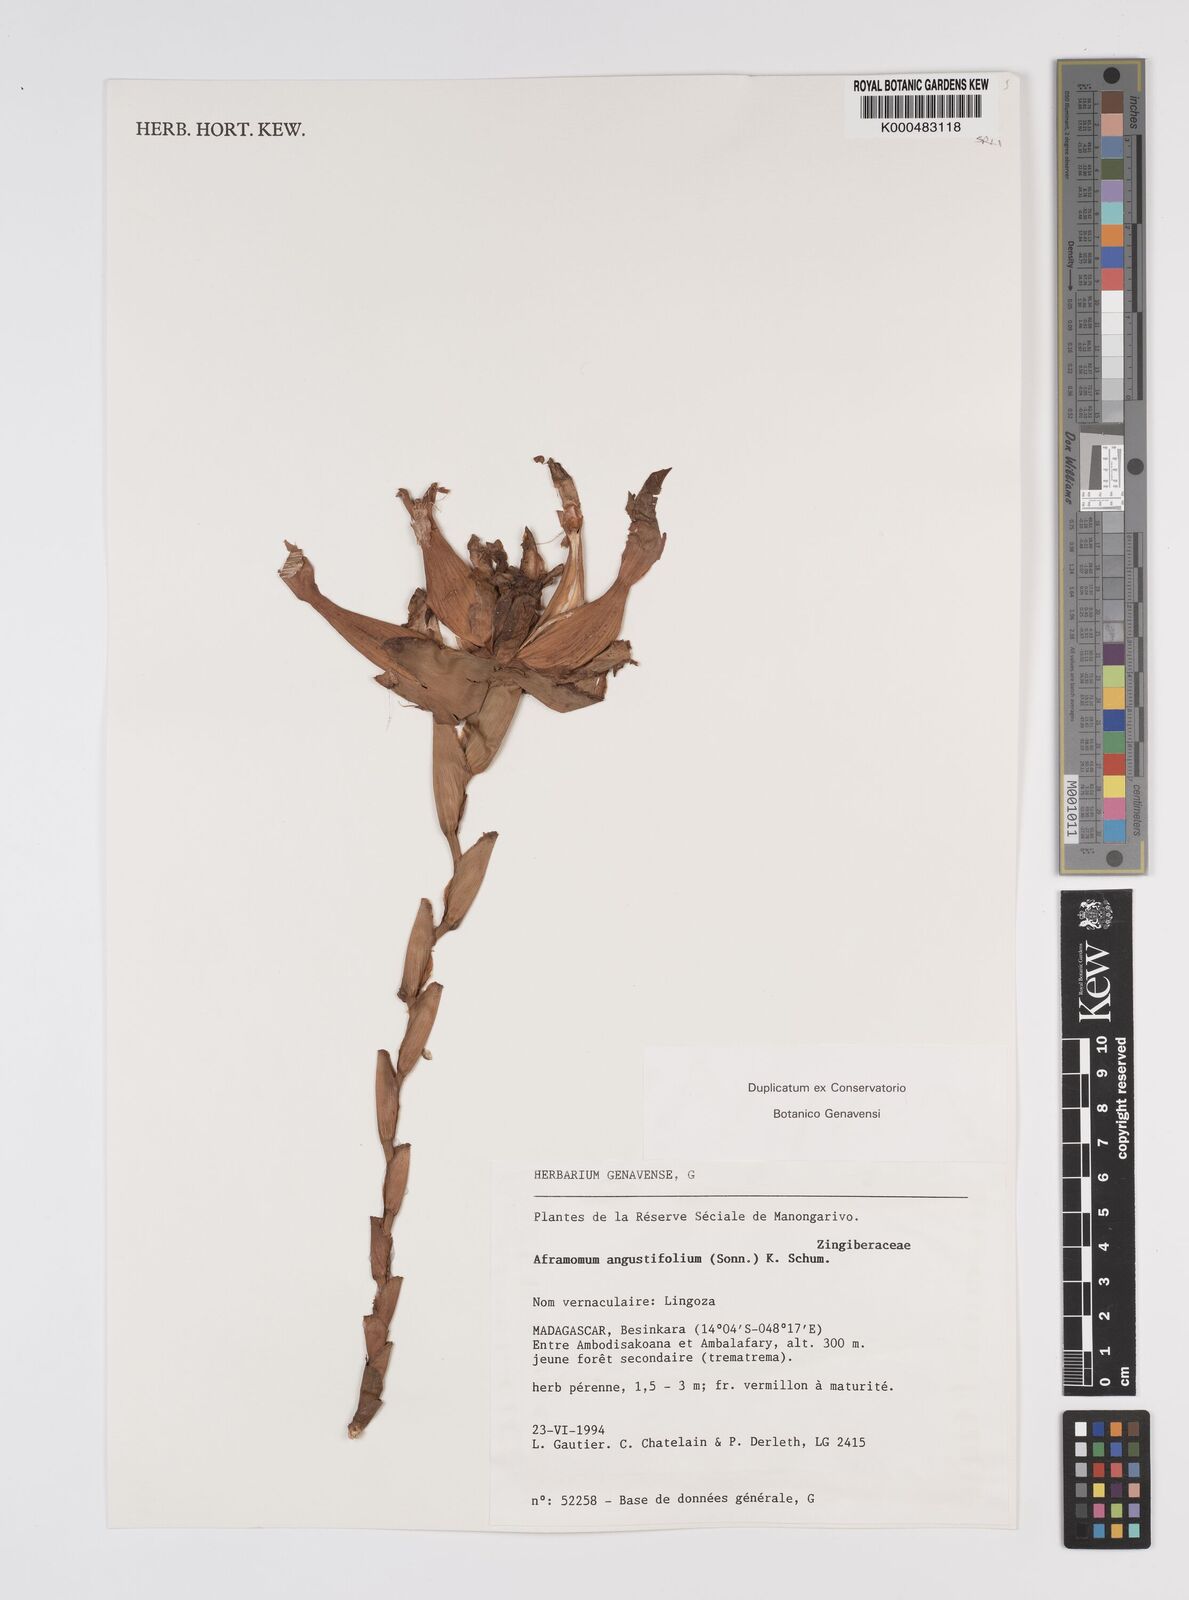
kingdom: Plantae
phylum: Tracheophyta
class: Liliopsida
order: Zingiberales
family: Zingiberaceae
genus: Aframomum
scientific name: Aframomum angustifolium
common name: Guinea grains
